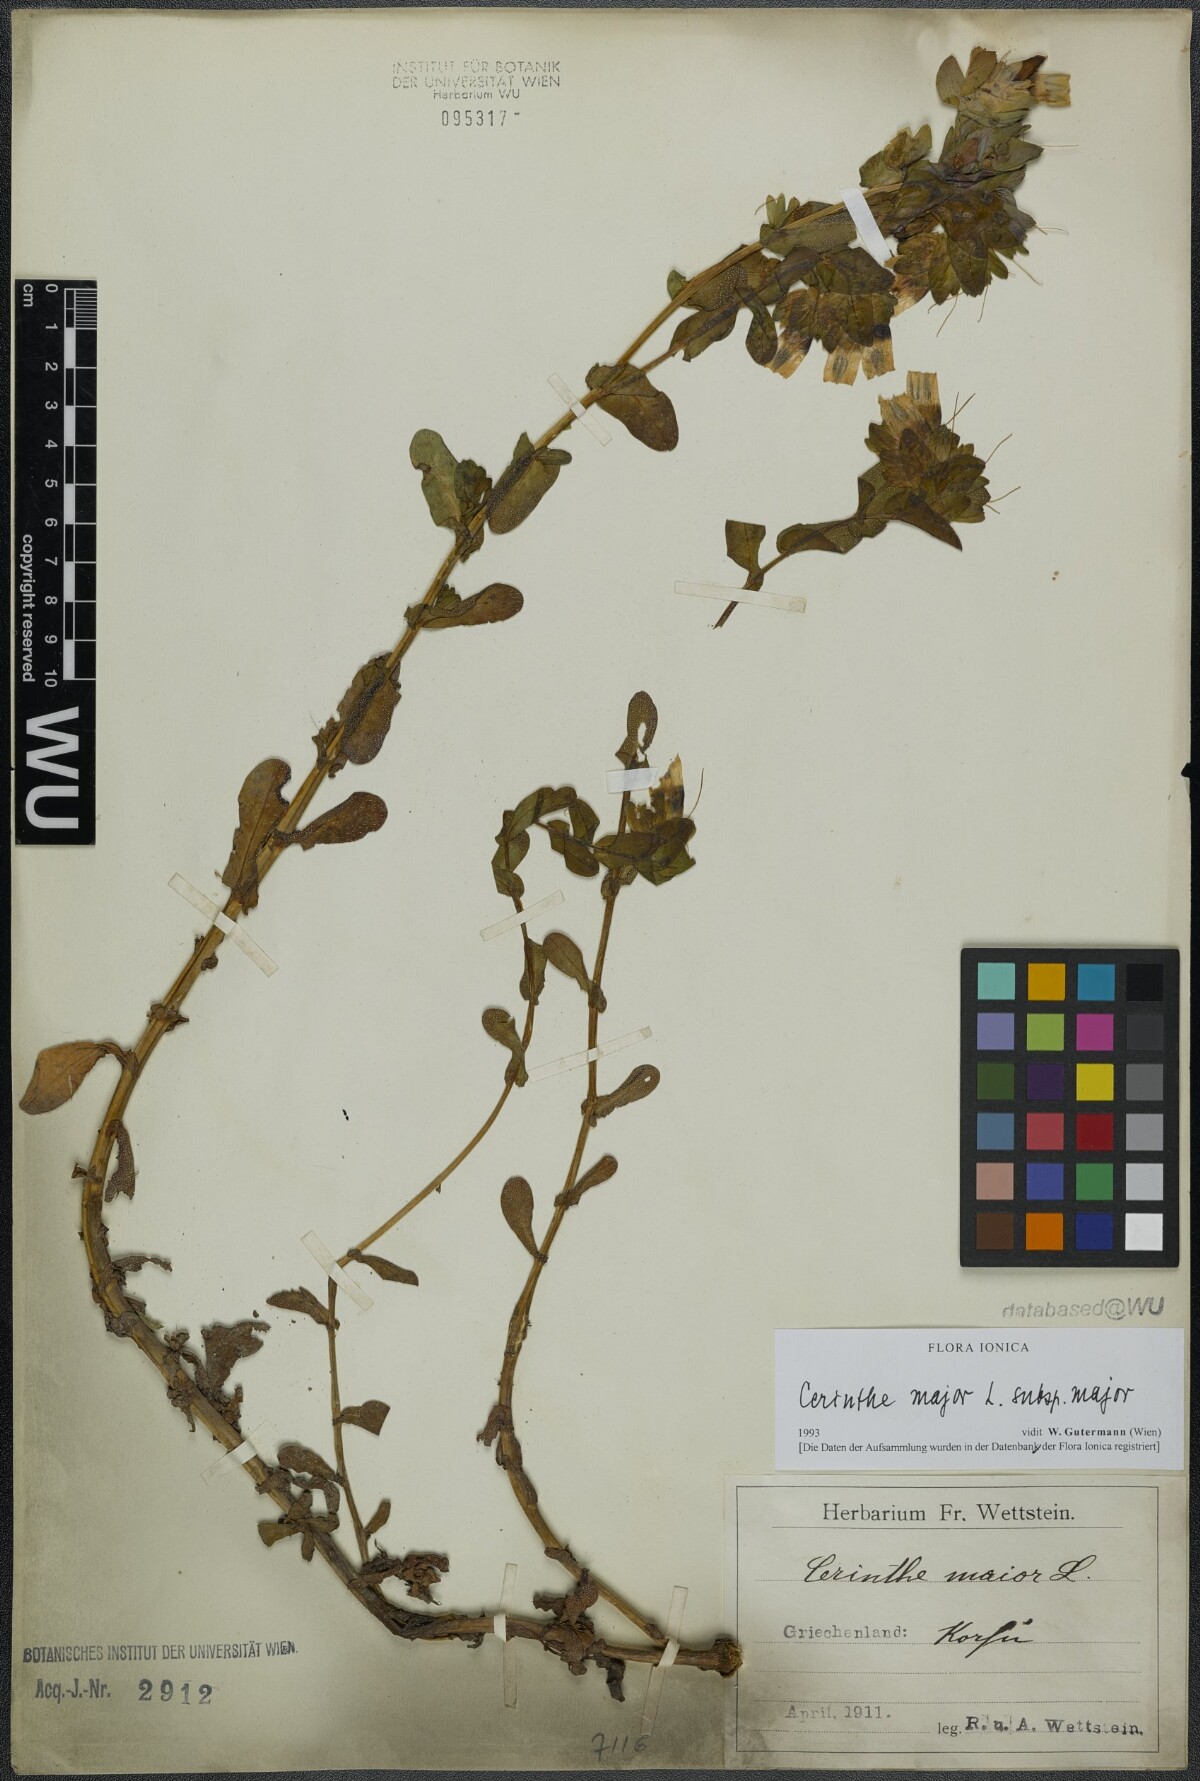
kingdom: Plantae
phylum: Tracheophyta
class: Magnoliopsida
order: Boraginales
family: Boraginaceae
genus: Cerinthe
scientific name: Cerinthe major
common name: Greater honeywort
